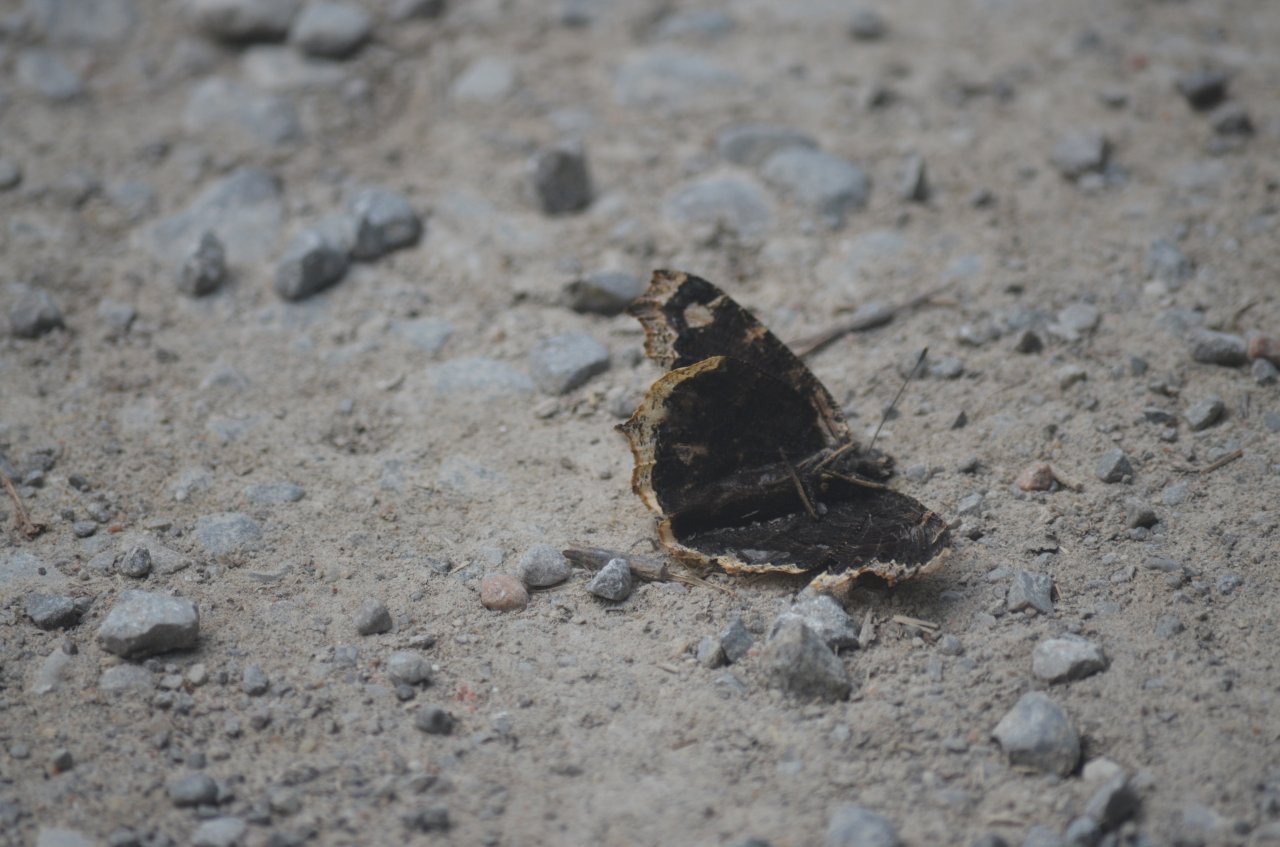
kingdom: Animalia
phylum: Arthropoda
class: Insecta
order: Lepidoptera
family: Nymphalidae
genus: Nymphalis
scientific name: Nymphalis antiopa
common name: Mourning Cloak
